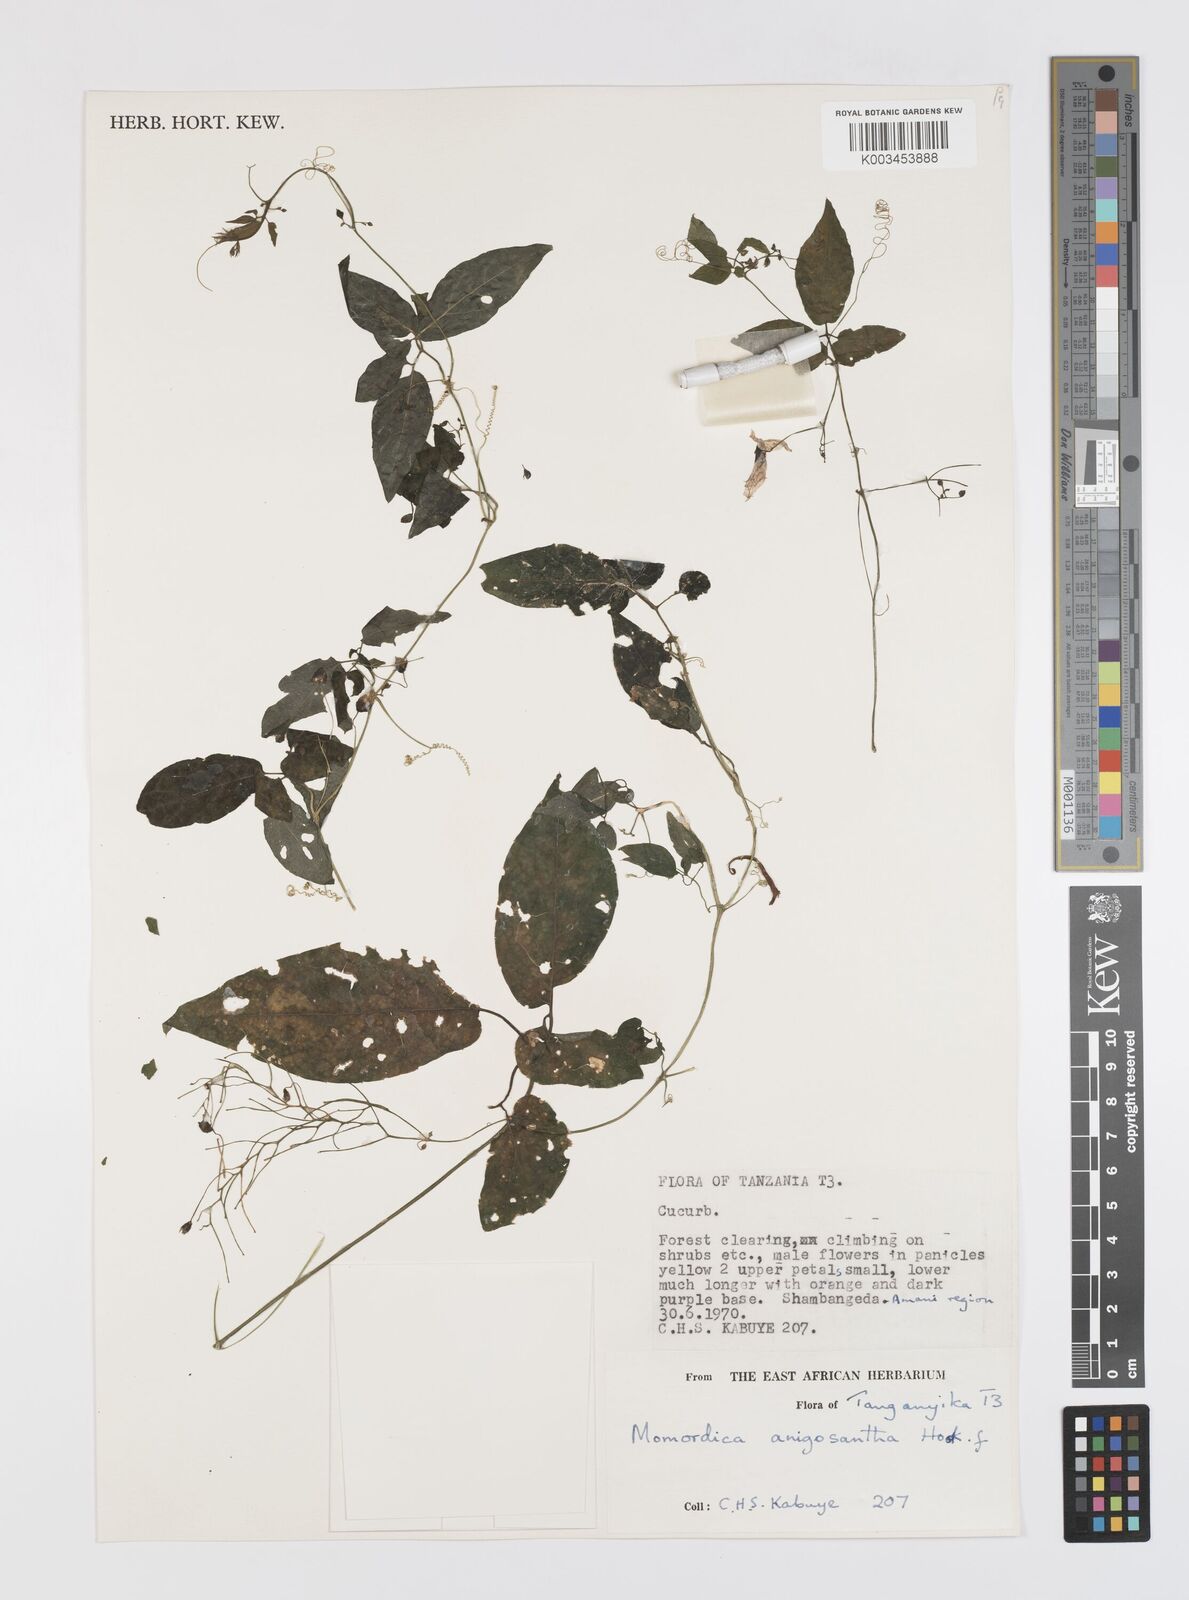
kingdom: Plantae
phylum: Tracheophyta
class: Magnoliopsida
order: Cucurbitales
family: Cucurbitaceae
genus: Momordica
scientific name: Momordica anigosantha
